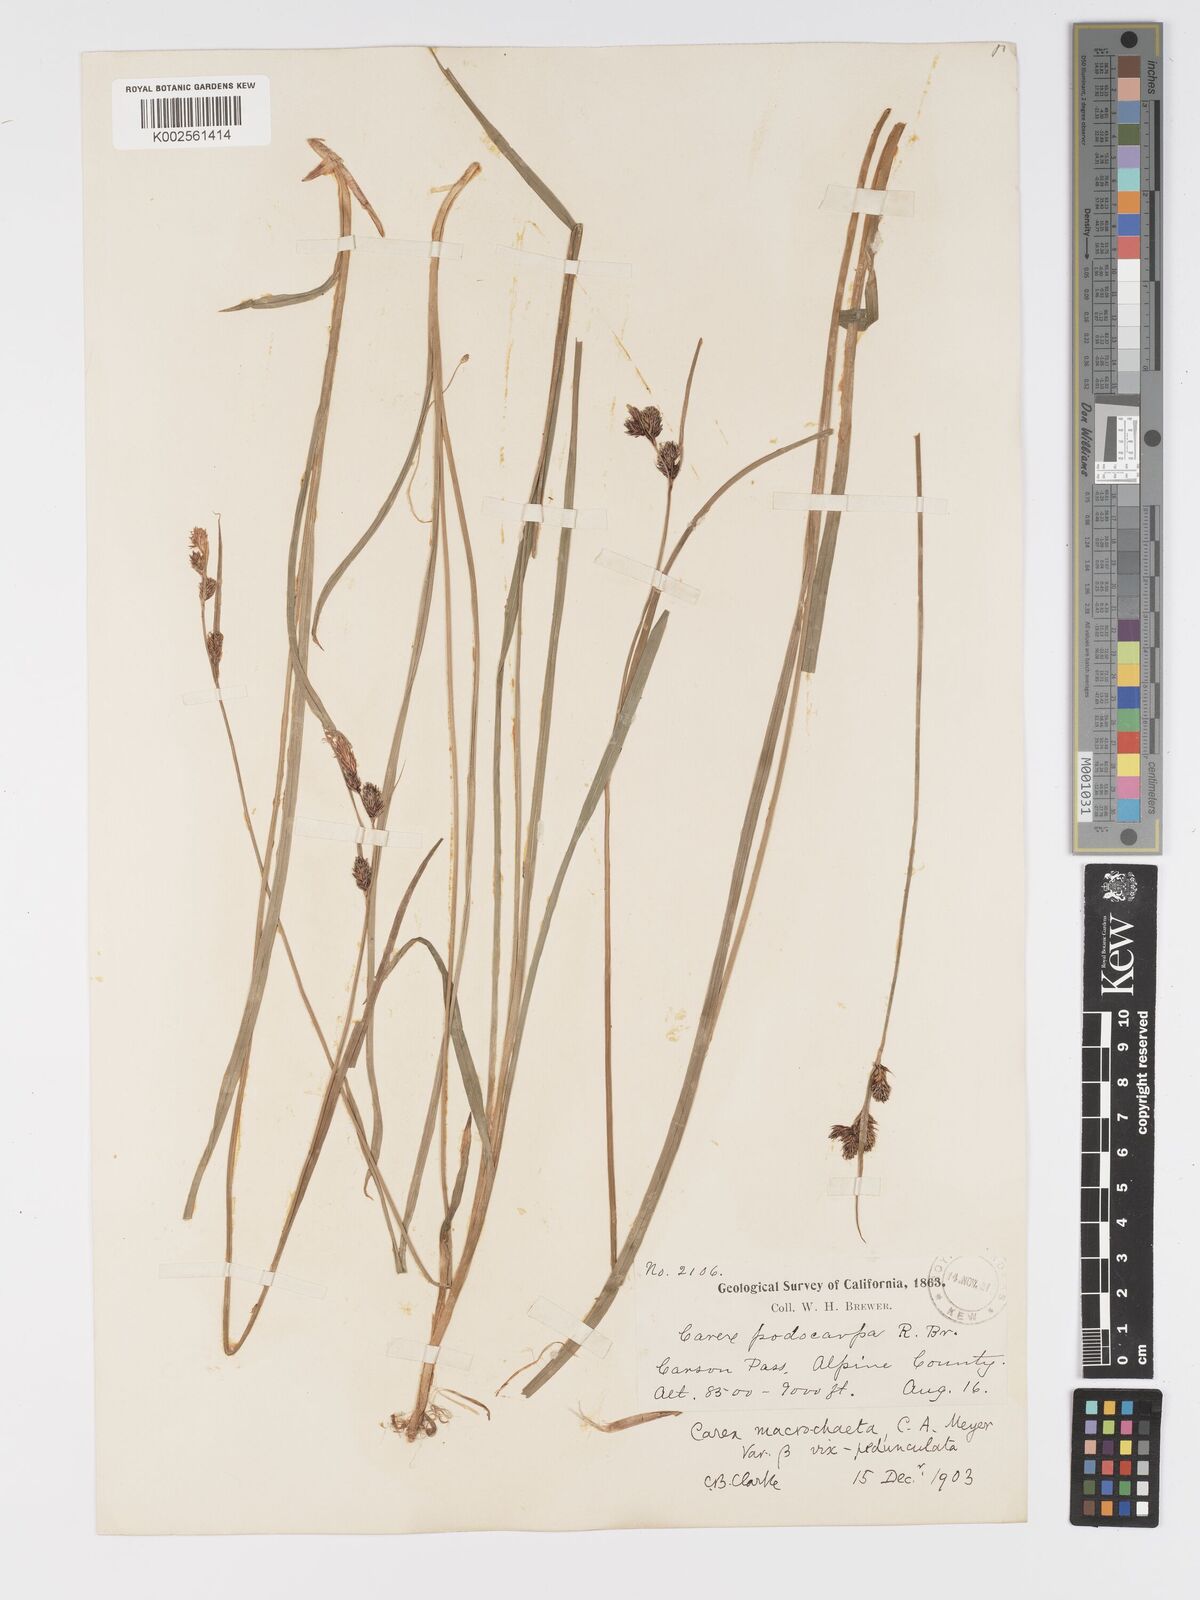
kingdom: Plantae
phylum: Tracheophyta
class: Liliopsida
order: Poales
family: Cyperaceae
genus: Carex
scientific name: Carex macrochaeta
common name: Alaska large awn sedge
